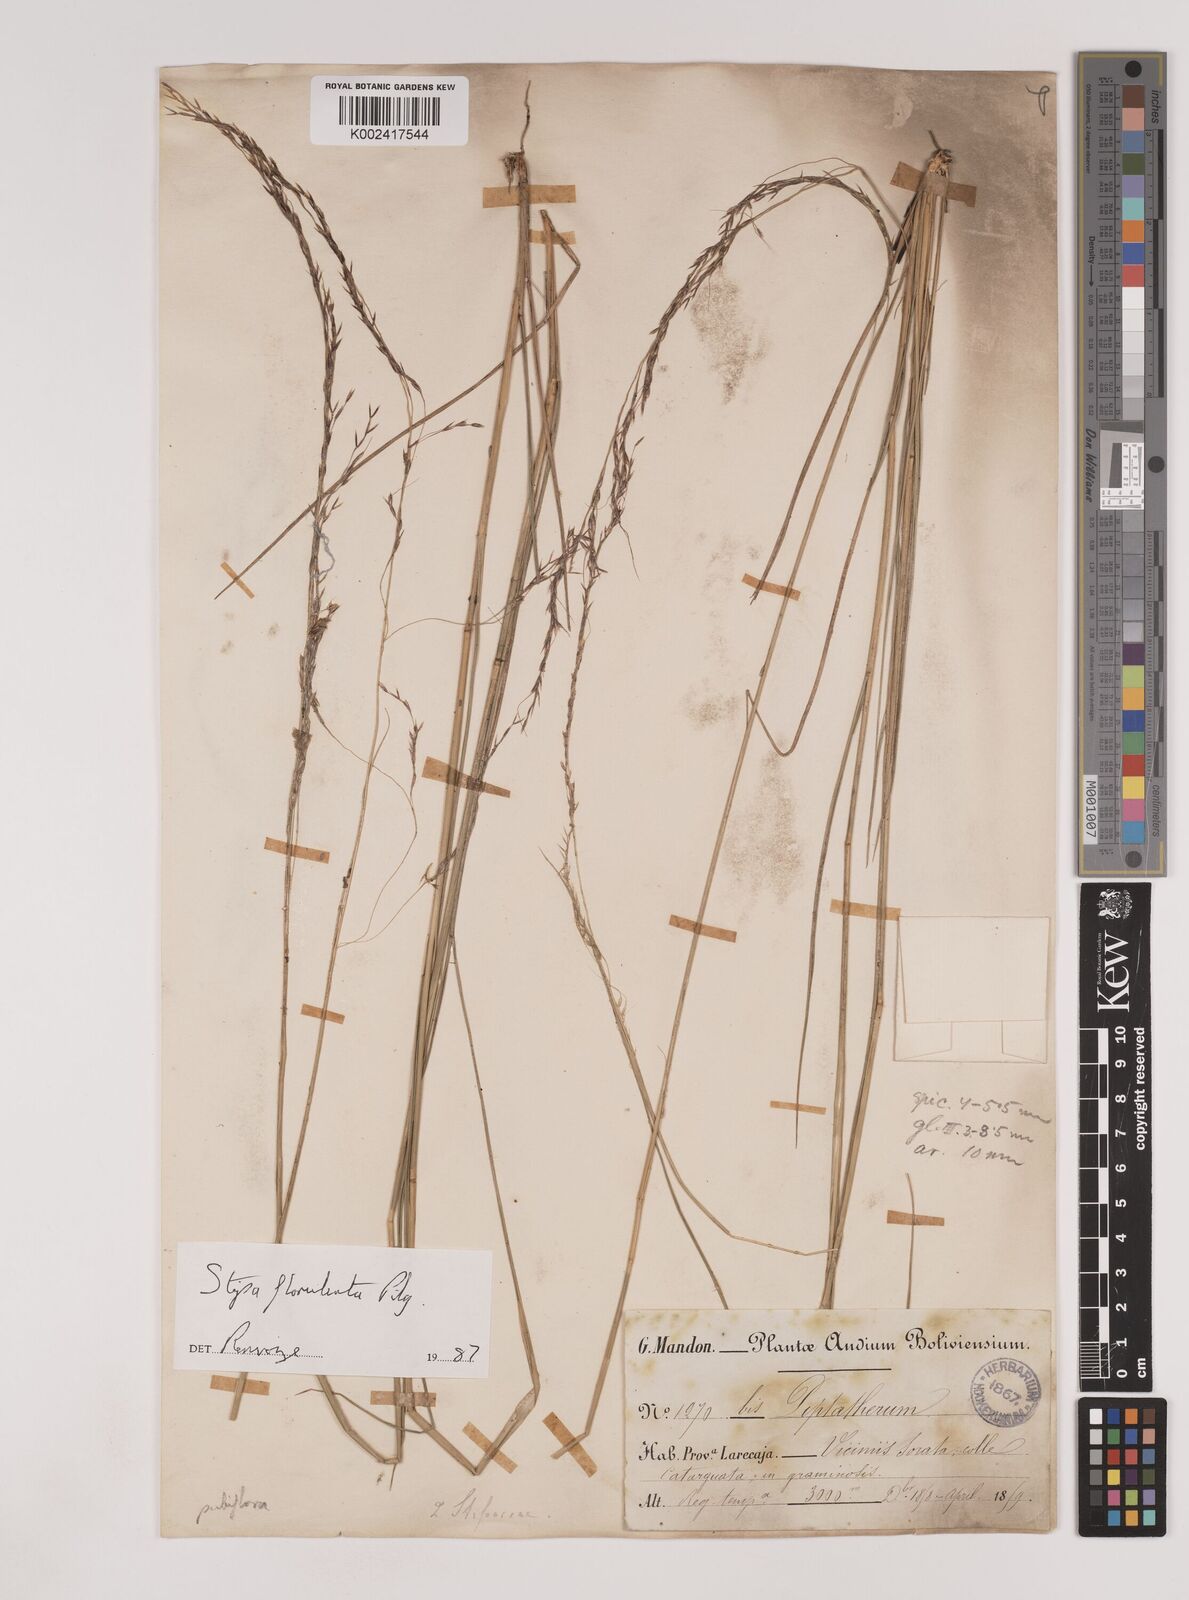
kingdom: Plantae
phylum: Tracheophyta
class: Liliopsida
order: Poales
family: Poaceae
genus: Nassella
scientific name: Nassella pubiflora
